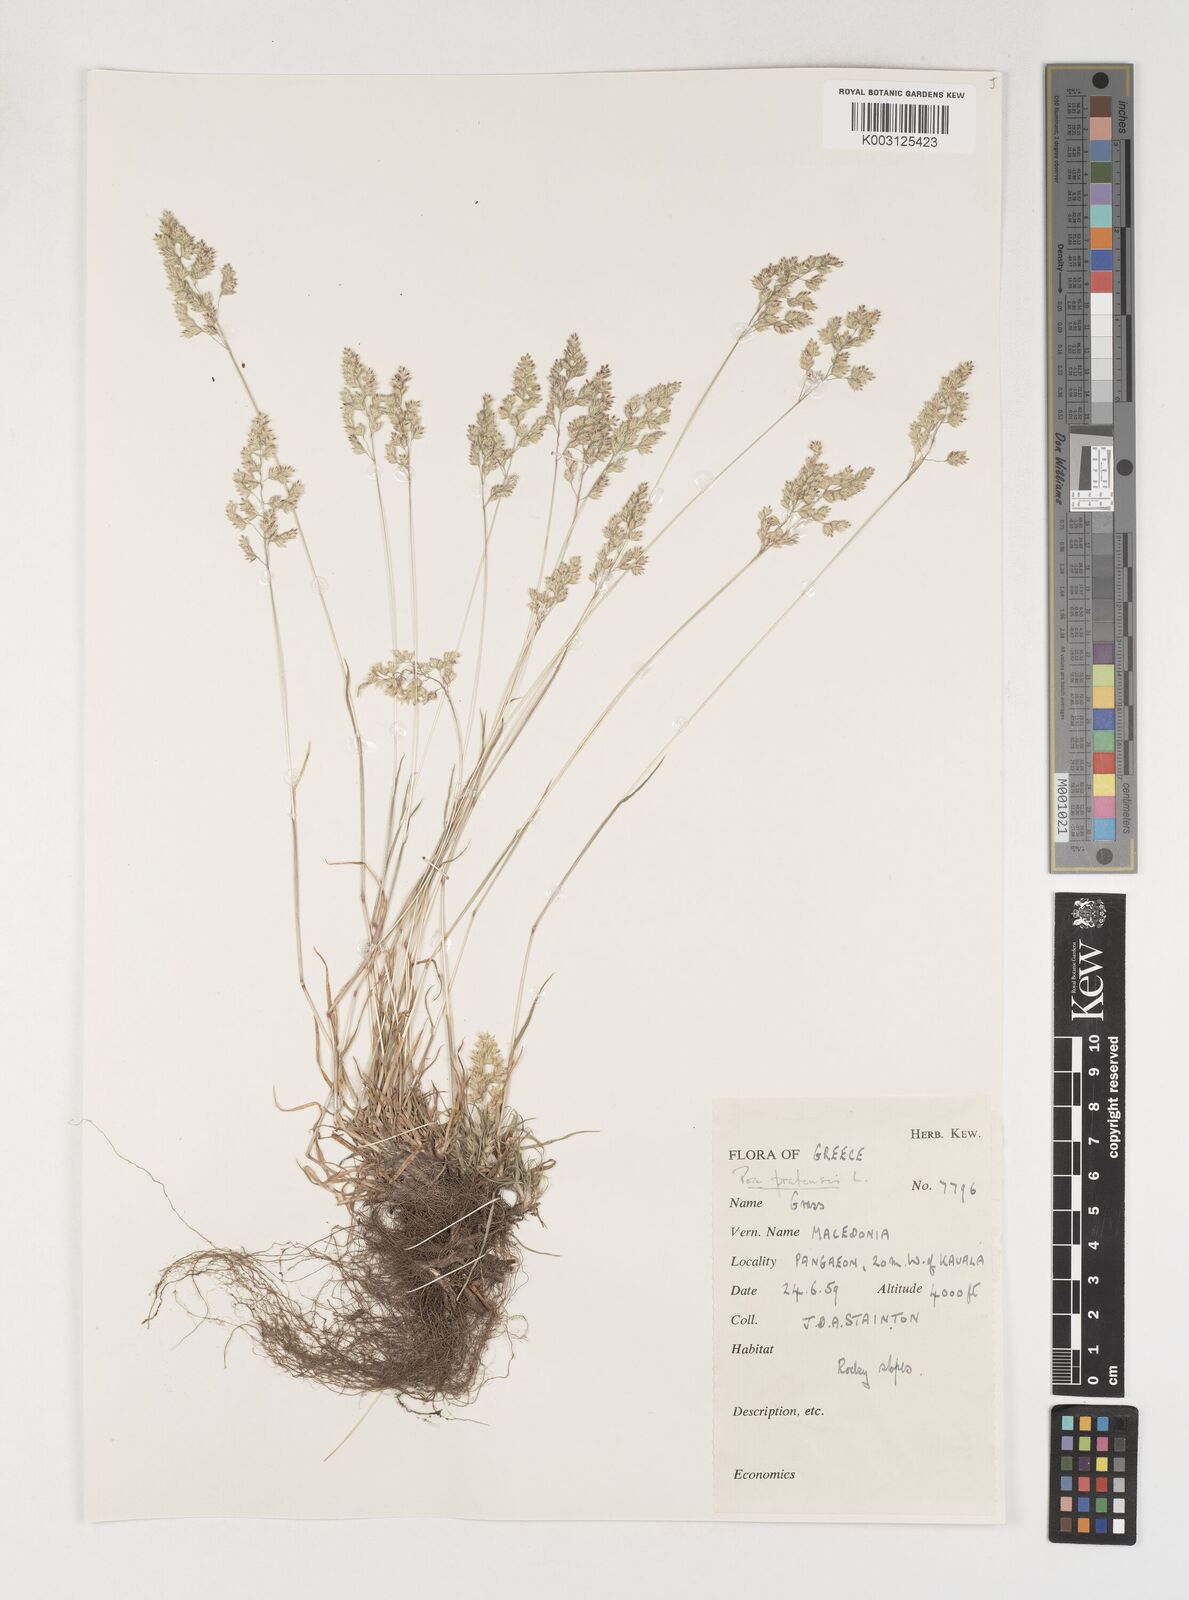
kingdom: Plantae
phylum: Tracheophyta
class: Liliopsida
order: Poales
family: Poaceae
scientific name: Poaceae
